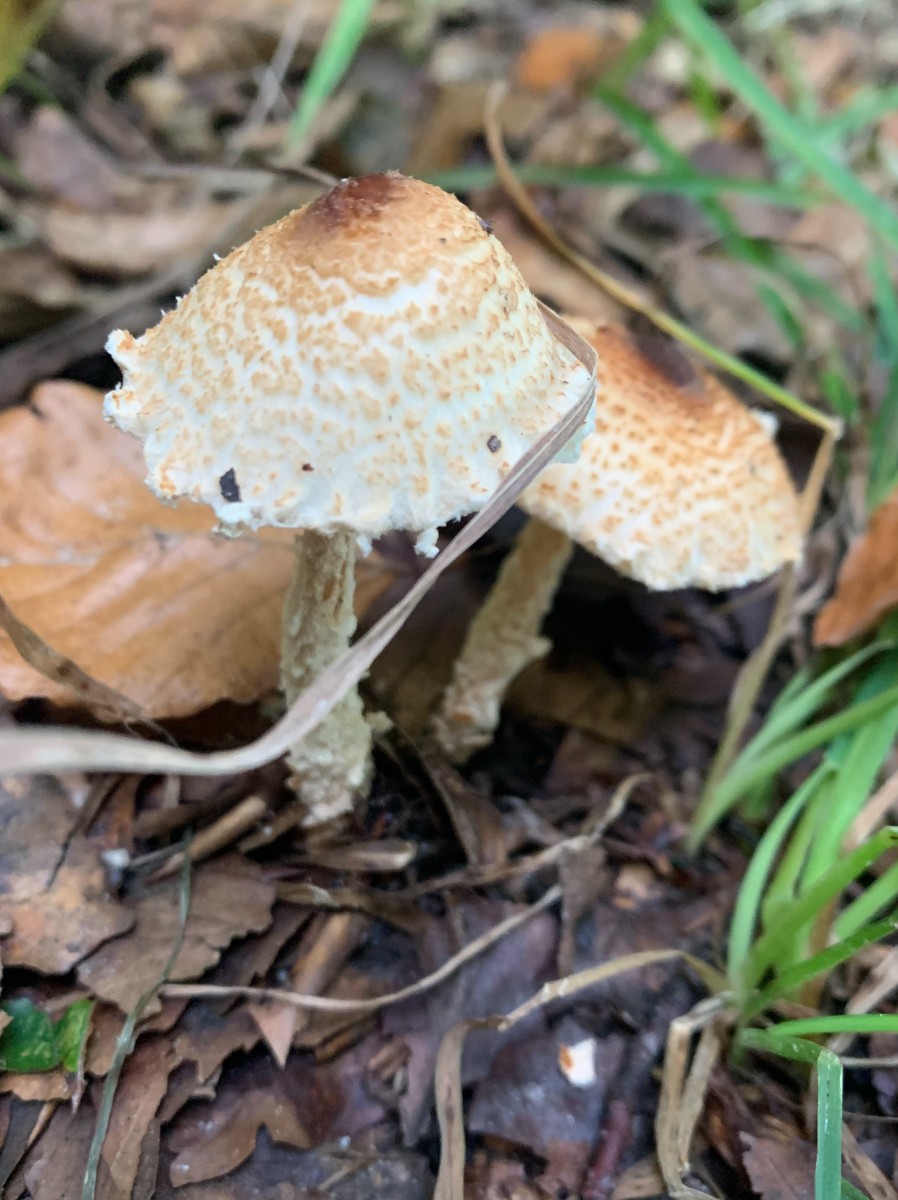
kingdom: Fungi
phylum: Basidiomycota
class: Agaricomycetes
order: Agaricales
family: Agaricaceae
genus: Lepiota
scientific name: Lepiota magnispora
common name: gulfnugget parasolhat
